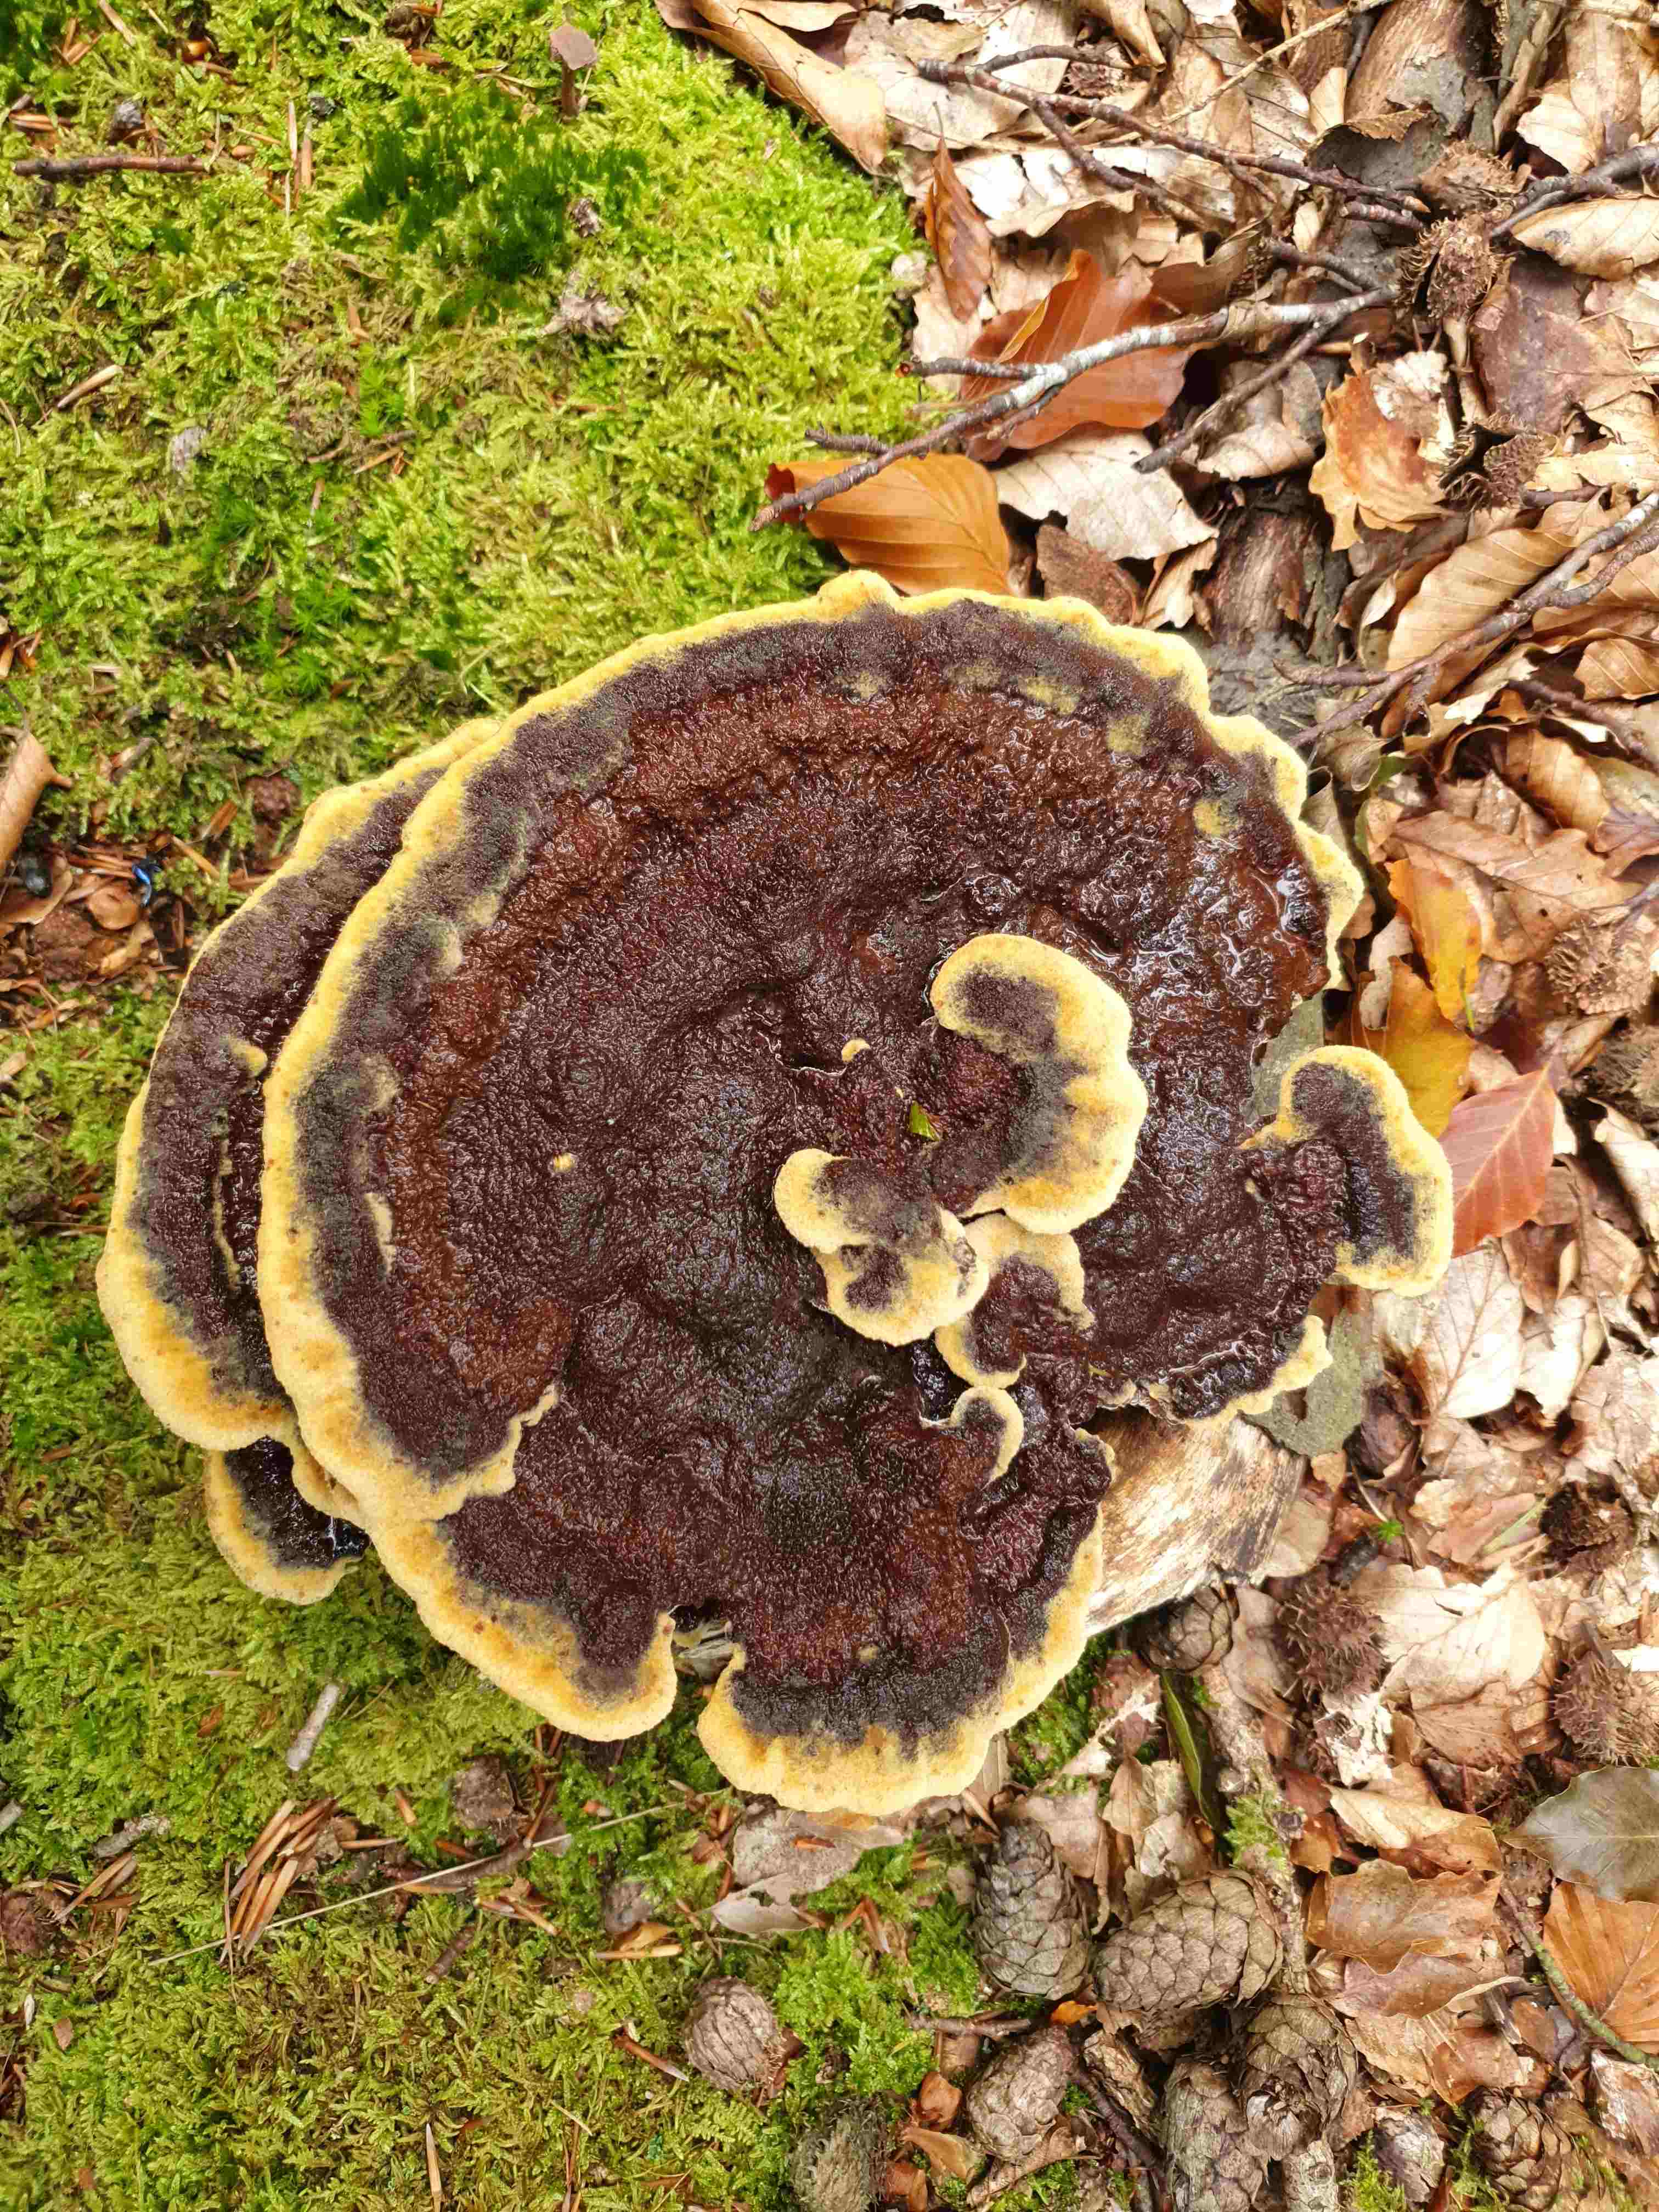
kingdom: Fungi
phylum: Basidiomycota
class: Agaricomycetes
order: Polyporales
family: Laetiporaceae
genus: Phaeolus
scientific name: Phaeolus schweinitzii
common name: brunporesvamp
